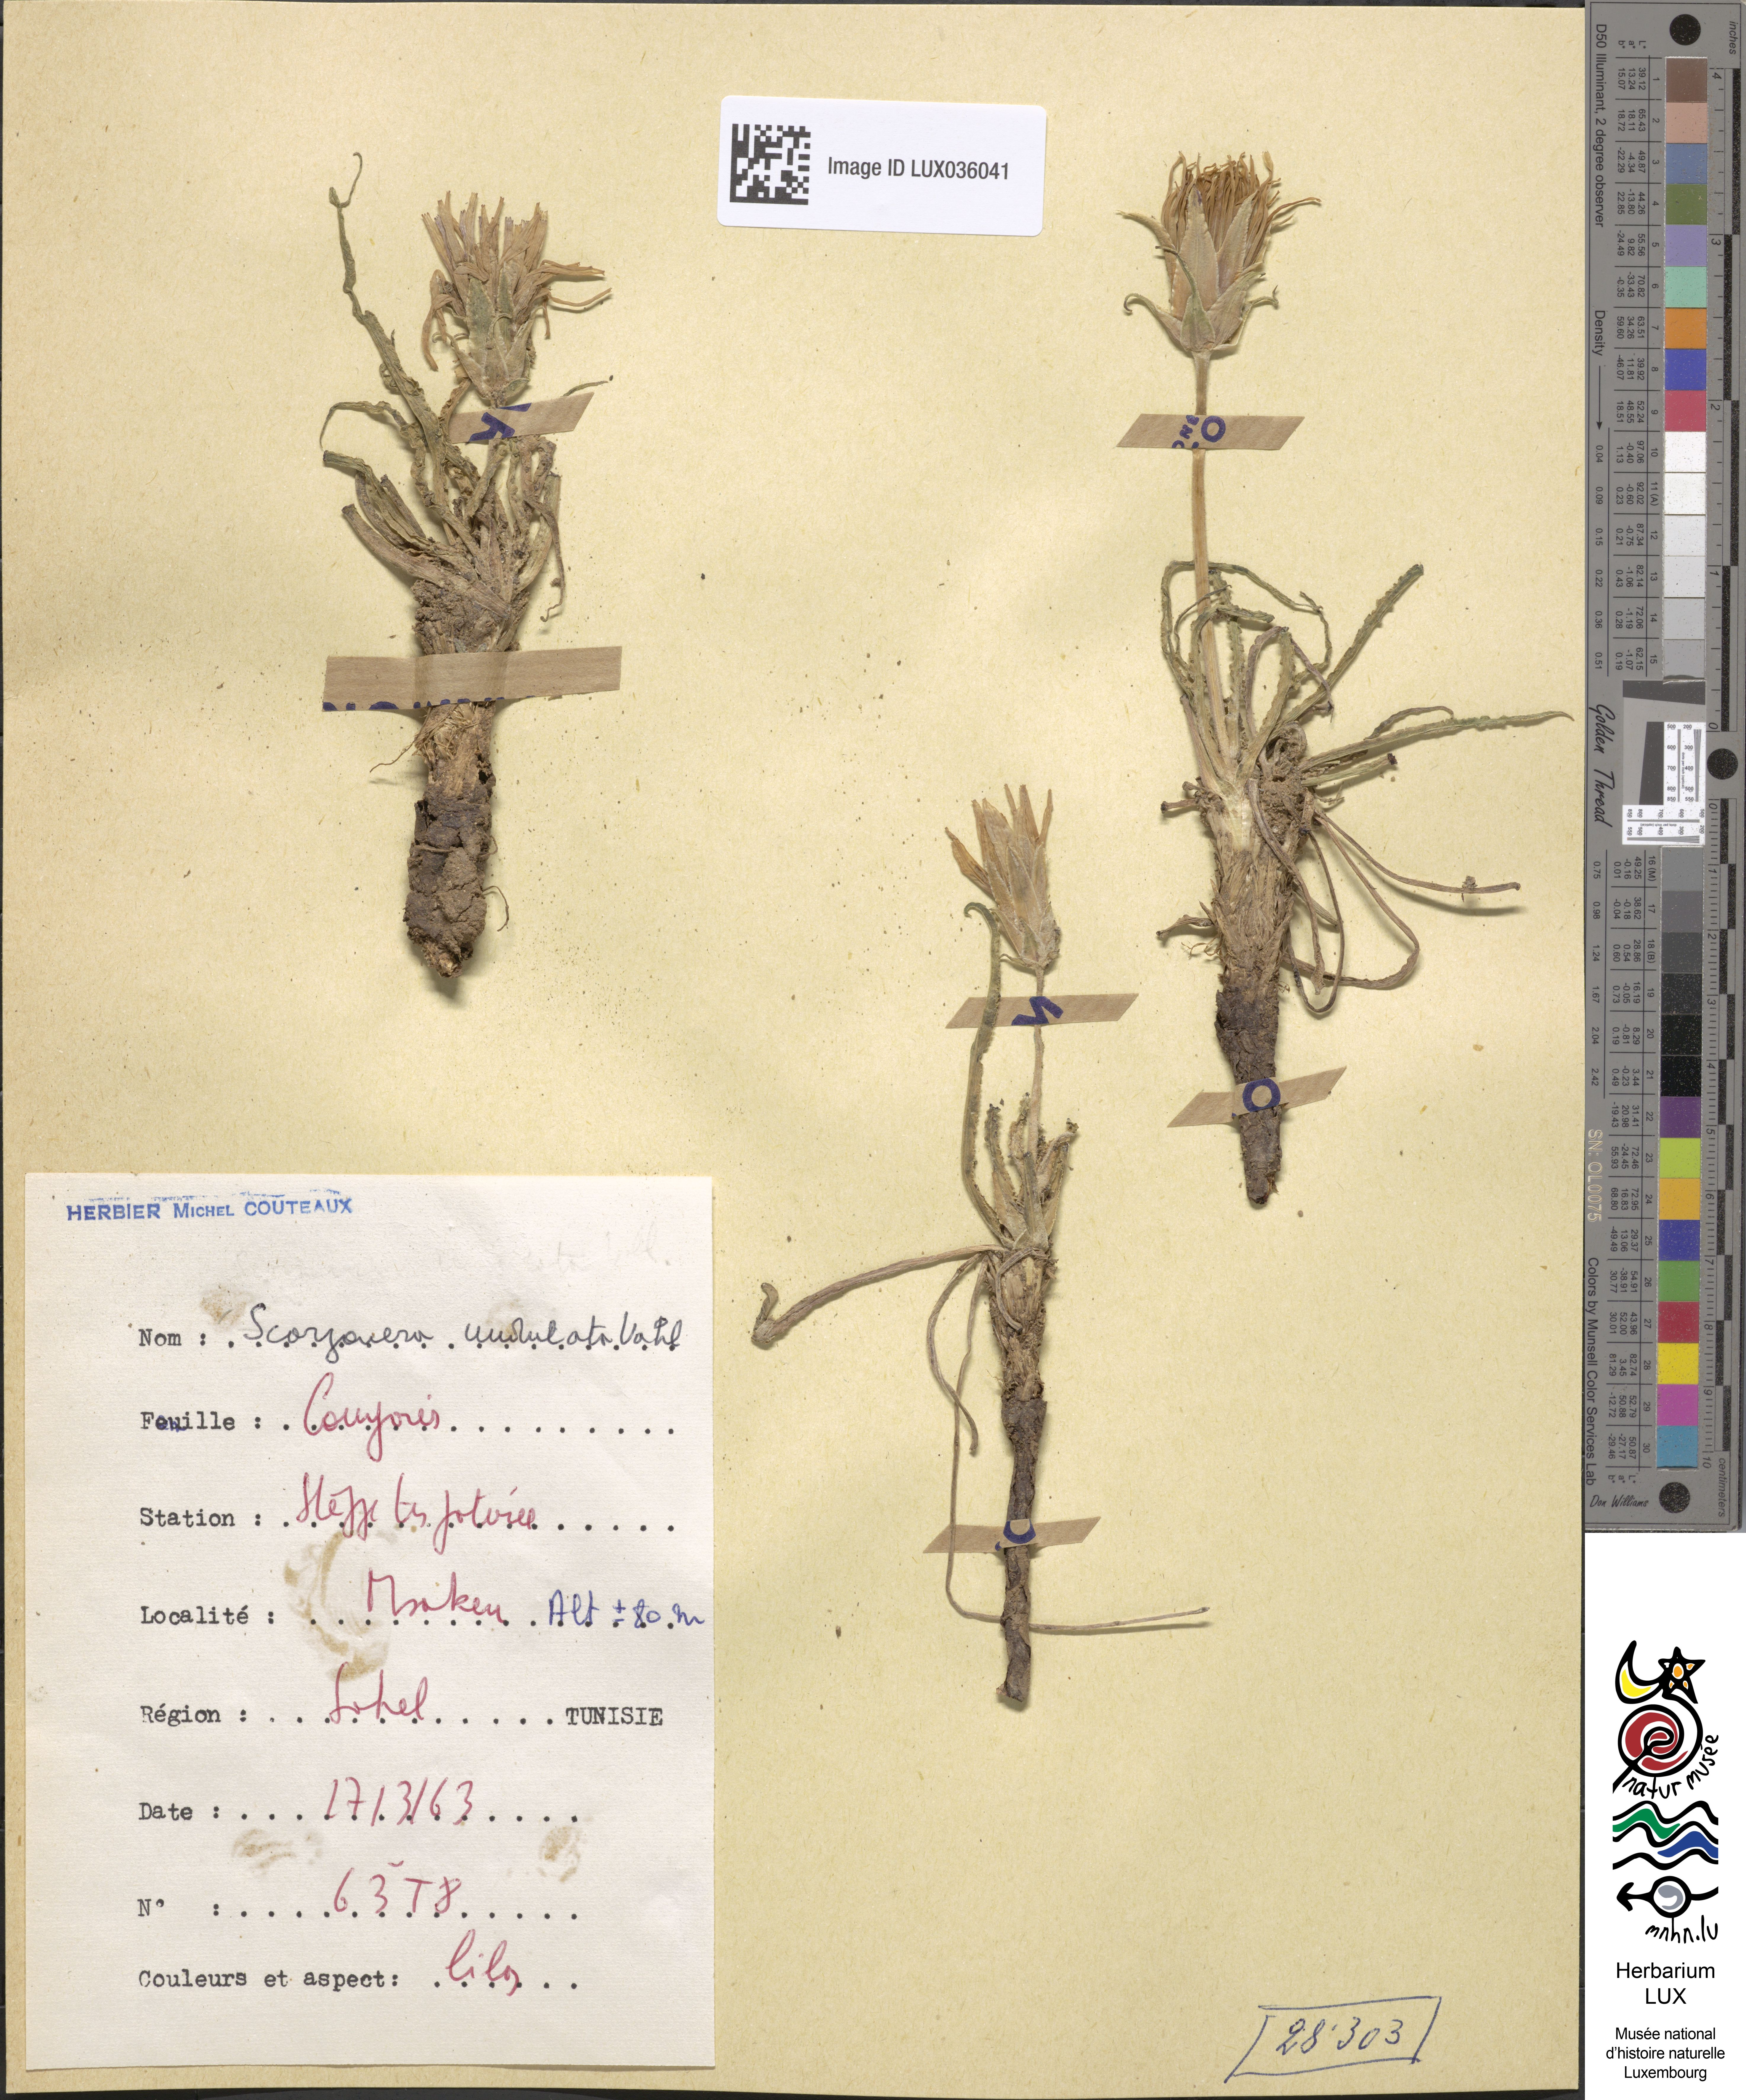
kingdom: Plantae
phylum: Tracheophyta
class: Magnoliopsida
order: Asterales
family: Asteraceae
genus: Pseudopodospermum
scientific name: Pseudopodospermum undulatum
